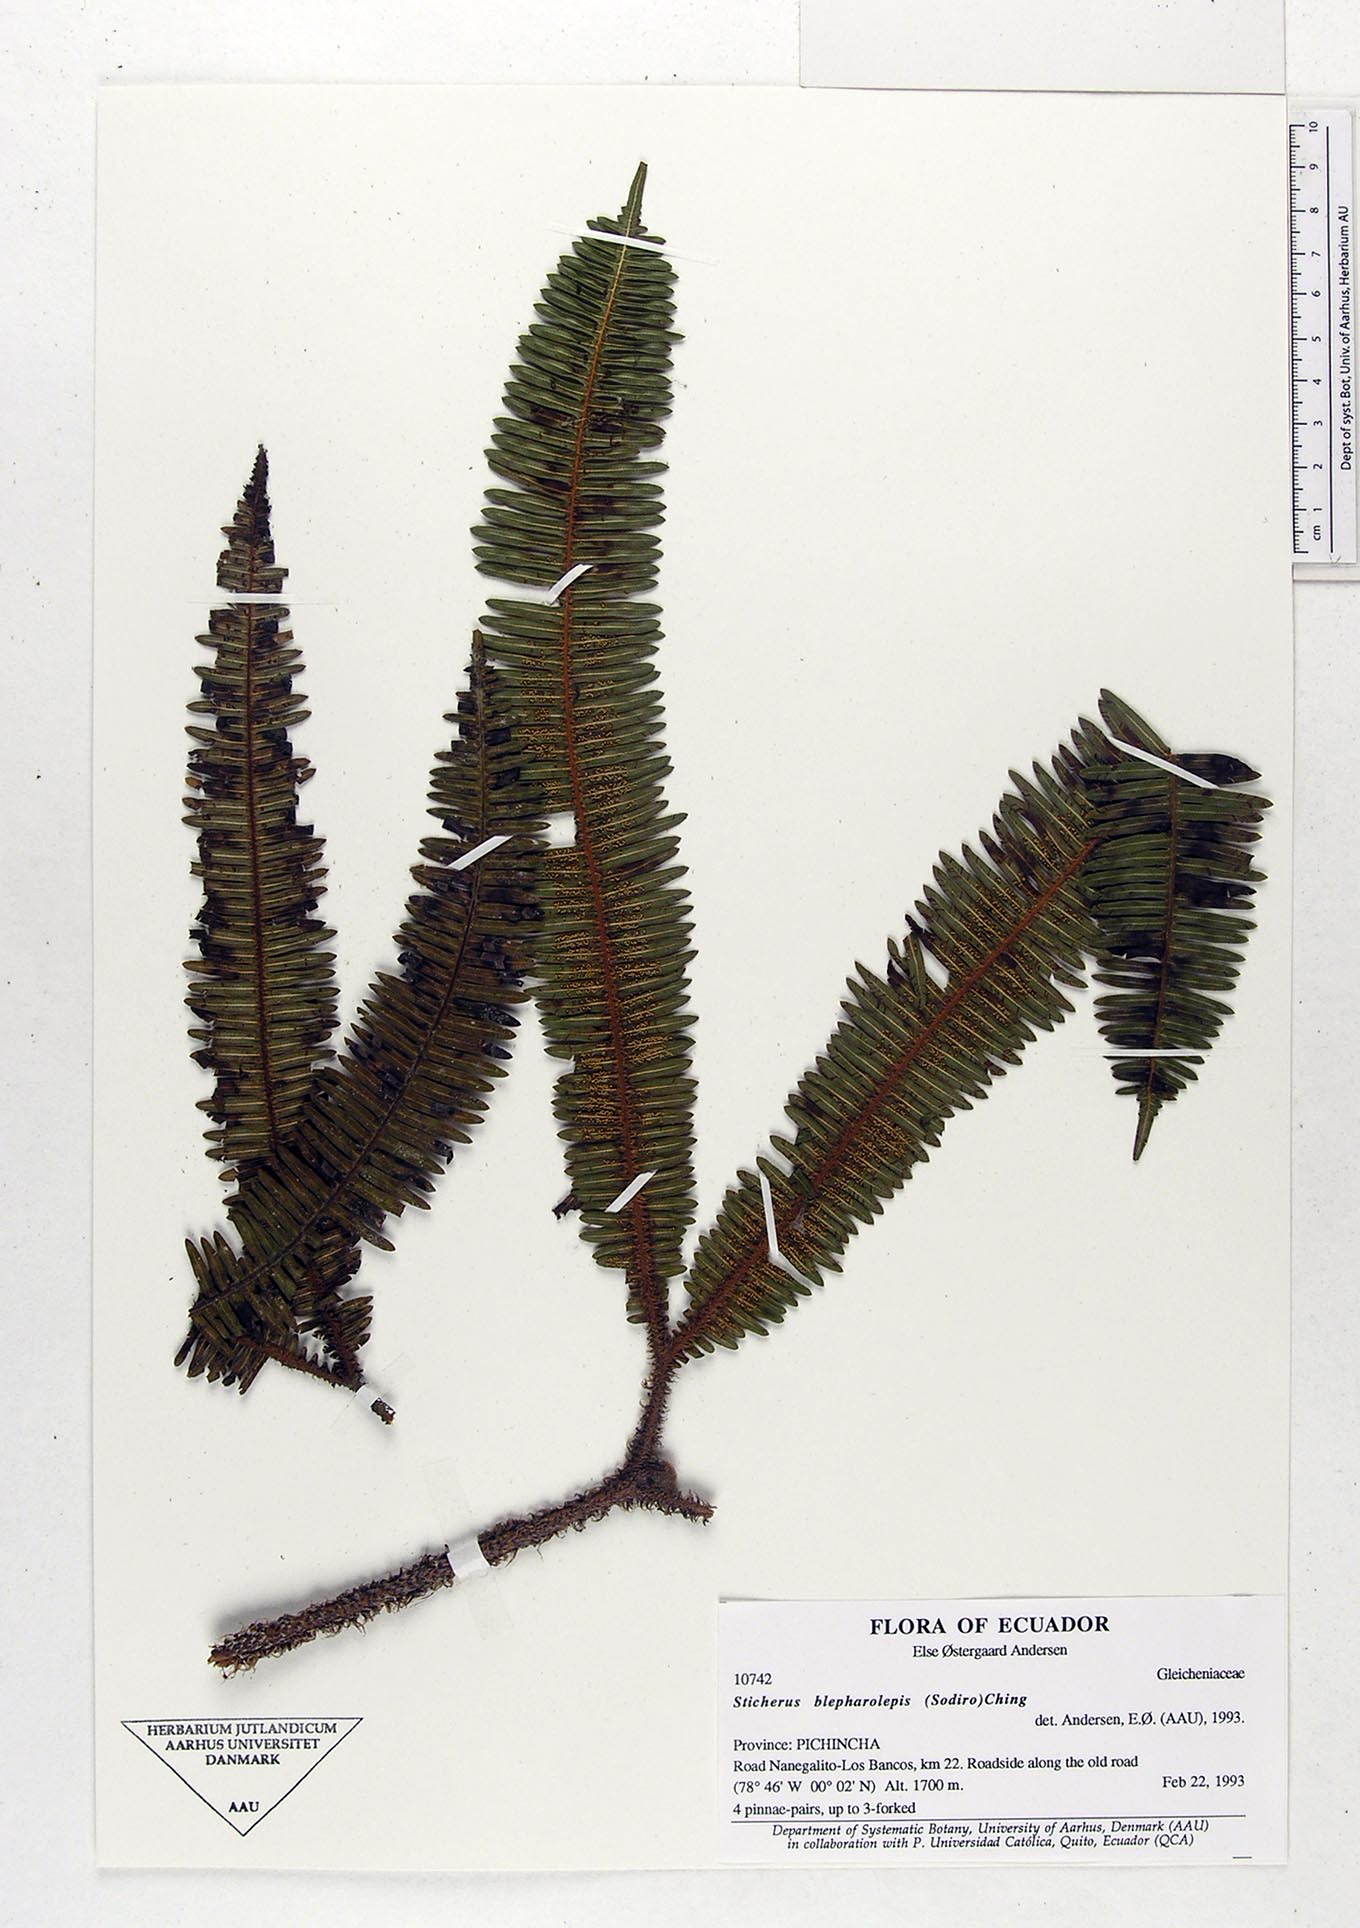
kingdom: Plantae
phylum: Tracheophyta
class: Polypodiopsida
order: Gleicheniales
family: Gleicheniaceae
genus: Sticherus
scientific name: Sticherus blepharolepis
